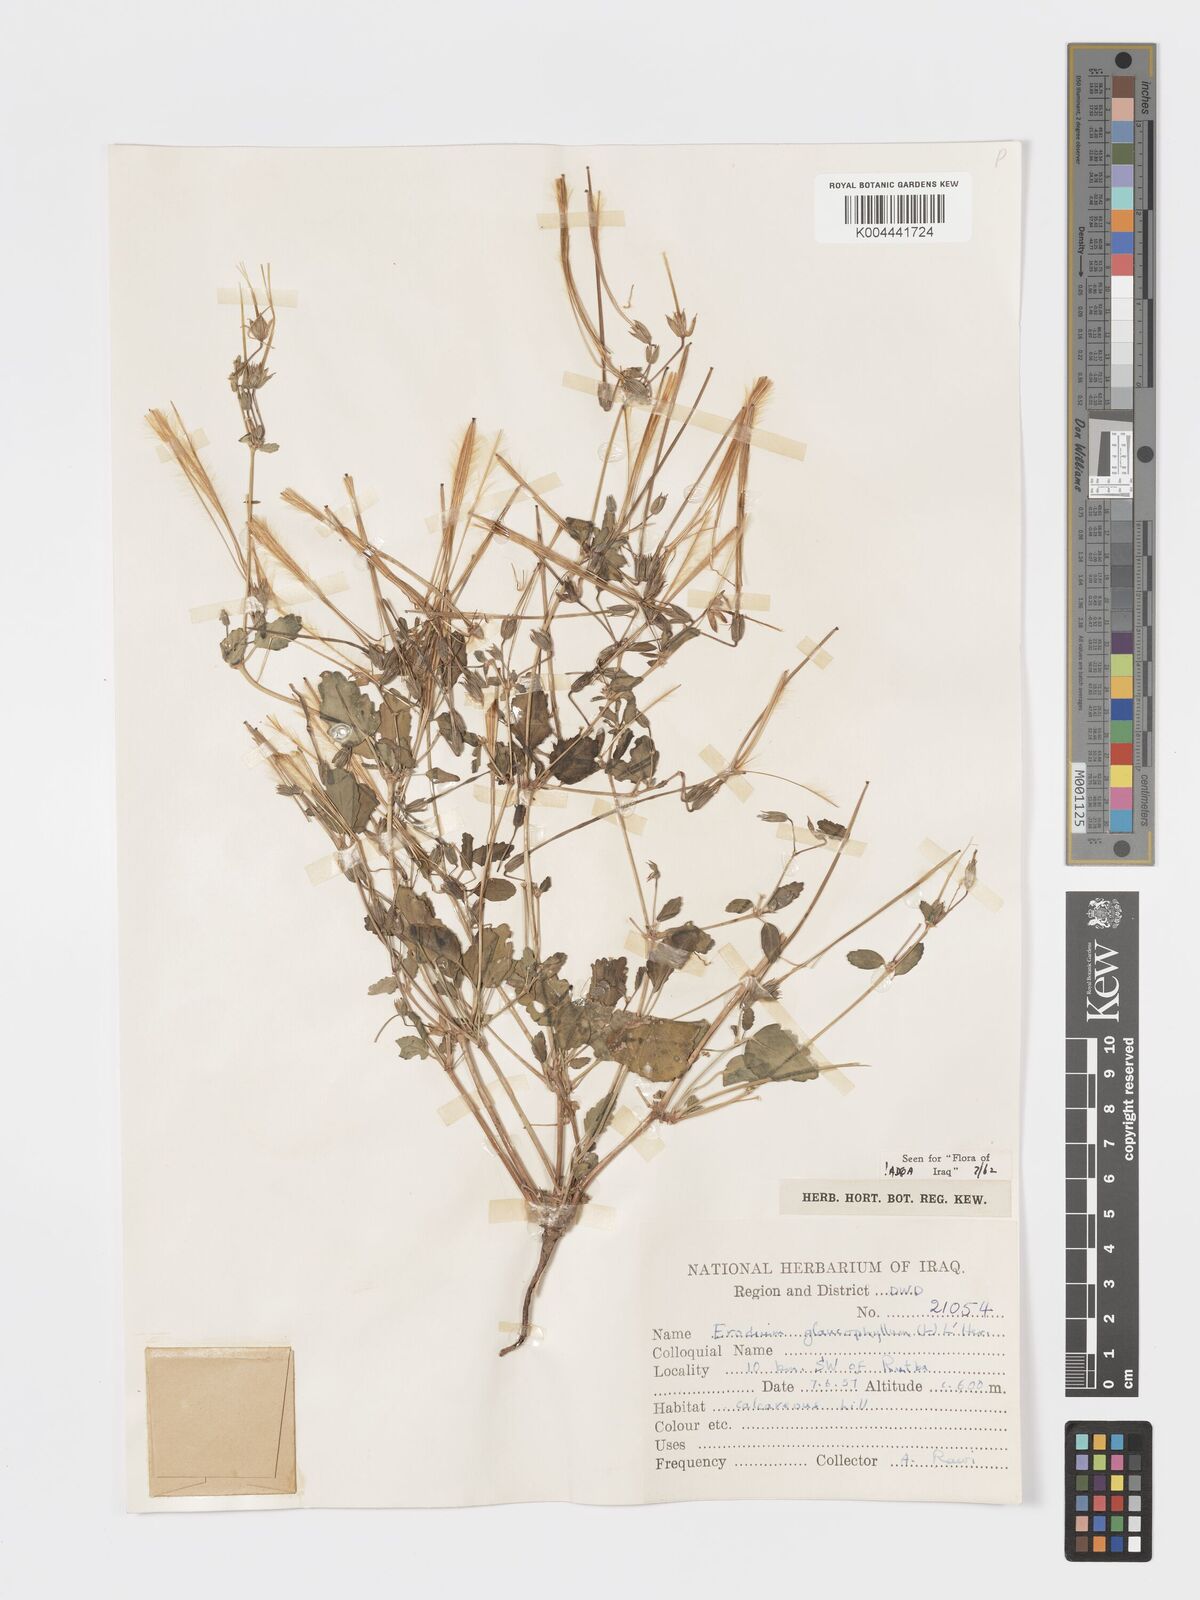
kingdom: Plantae
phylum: Tracheophyta
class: Magnoliopsida
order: Geraniales
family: Geraniaceae
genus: Erodium
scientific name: Erodium glaucophyllum
